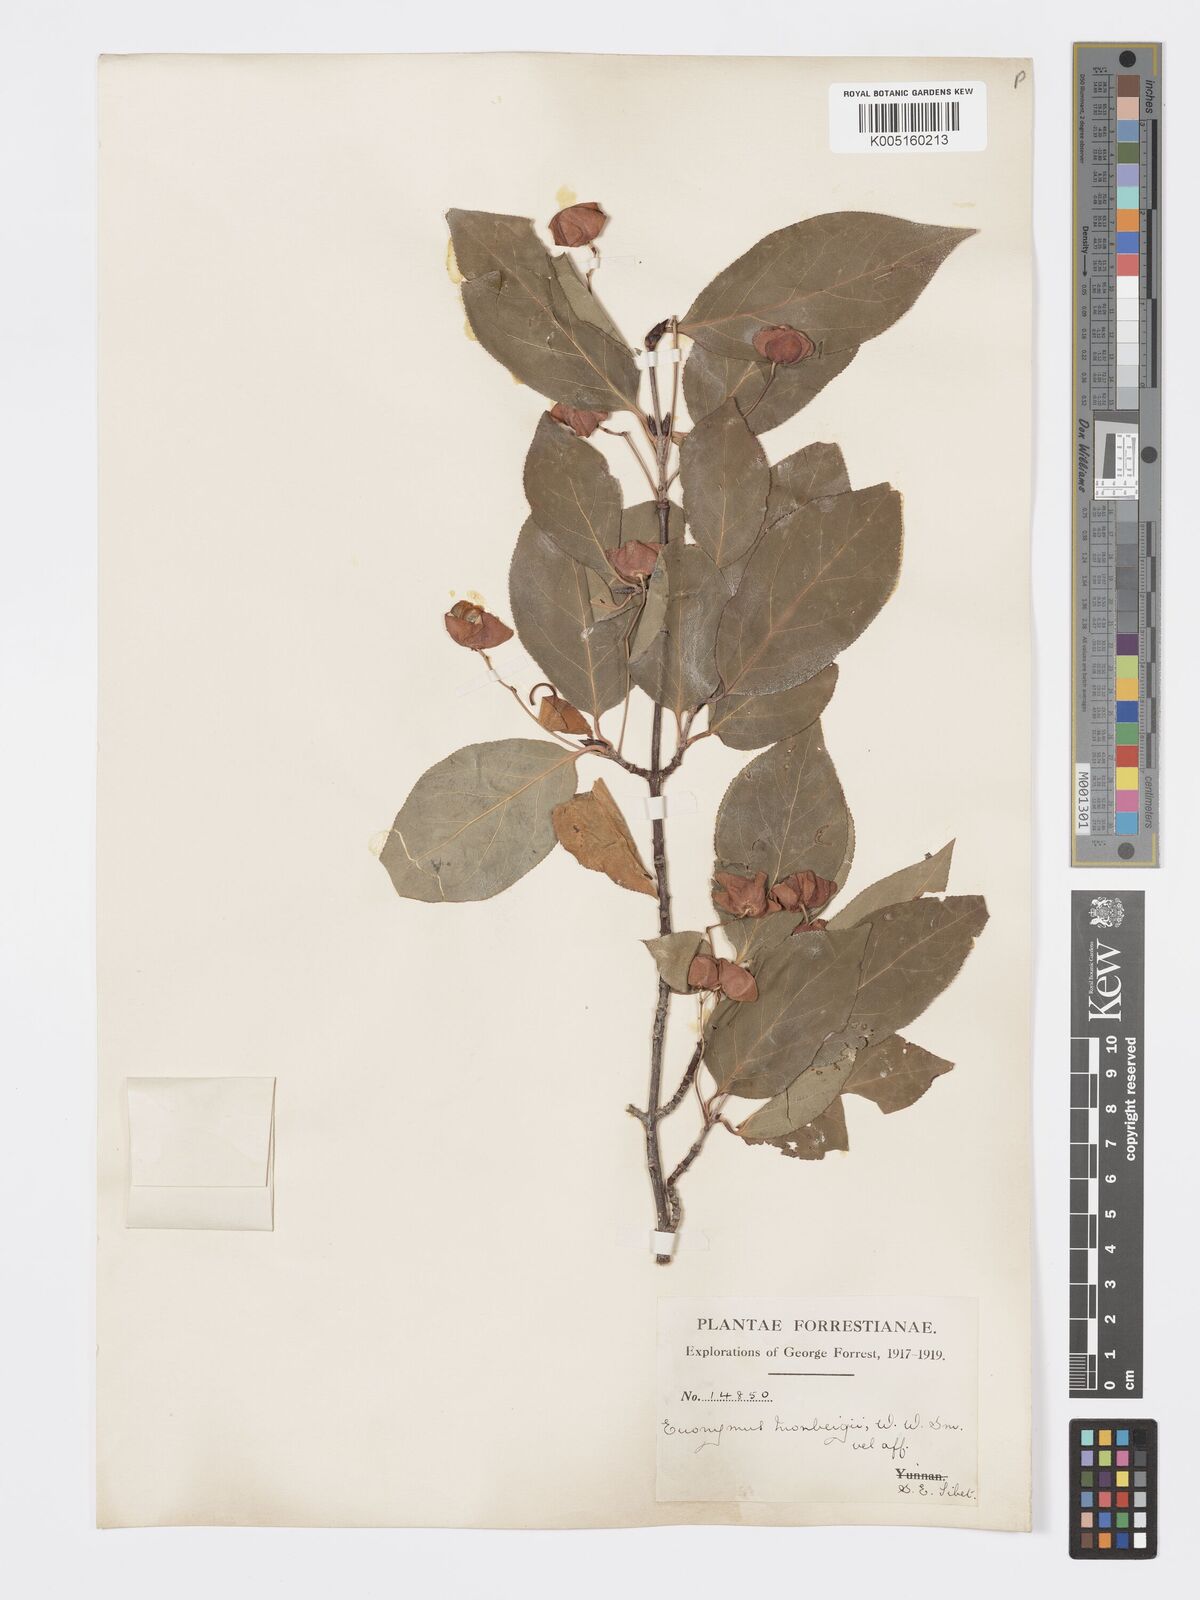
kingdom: Plantae
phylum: Tracheophyta
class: Magnoliopsida
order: Celastrales
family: Celastraceae
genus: Euonymus
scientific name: Euonymus sanguineus
